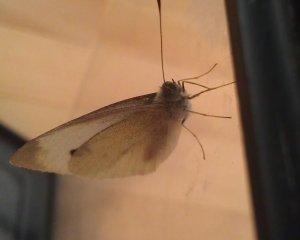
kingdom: Animalia
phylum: Arthropoda
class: Insecta
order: Lepidoptera
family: Pieridae
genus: Pieris
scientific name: Pieris rapae
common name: Cabbage White
